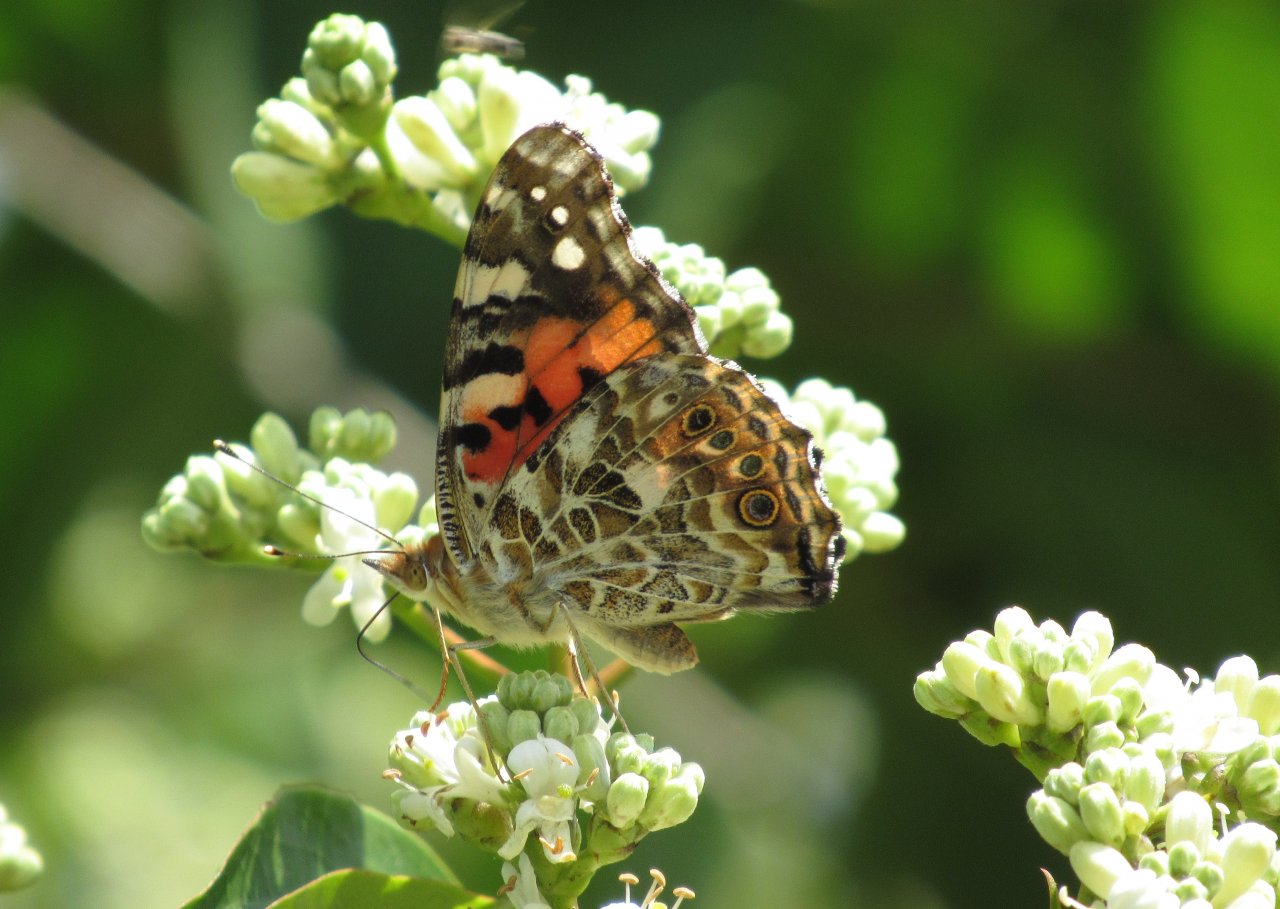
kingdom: Animalia
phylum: Arthropoda
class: Insecta
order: Lepidoptera
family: Nymphalidae
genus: Vanessa
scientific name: Vanessa cardui
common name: Painted Lady
